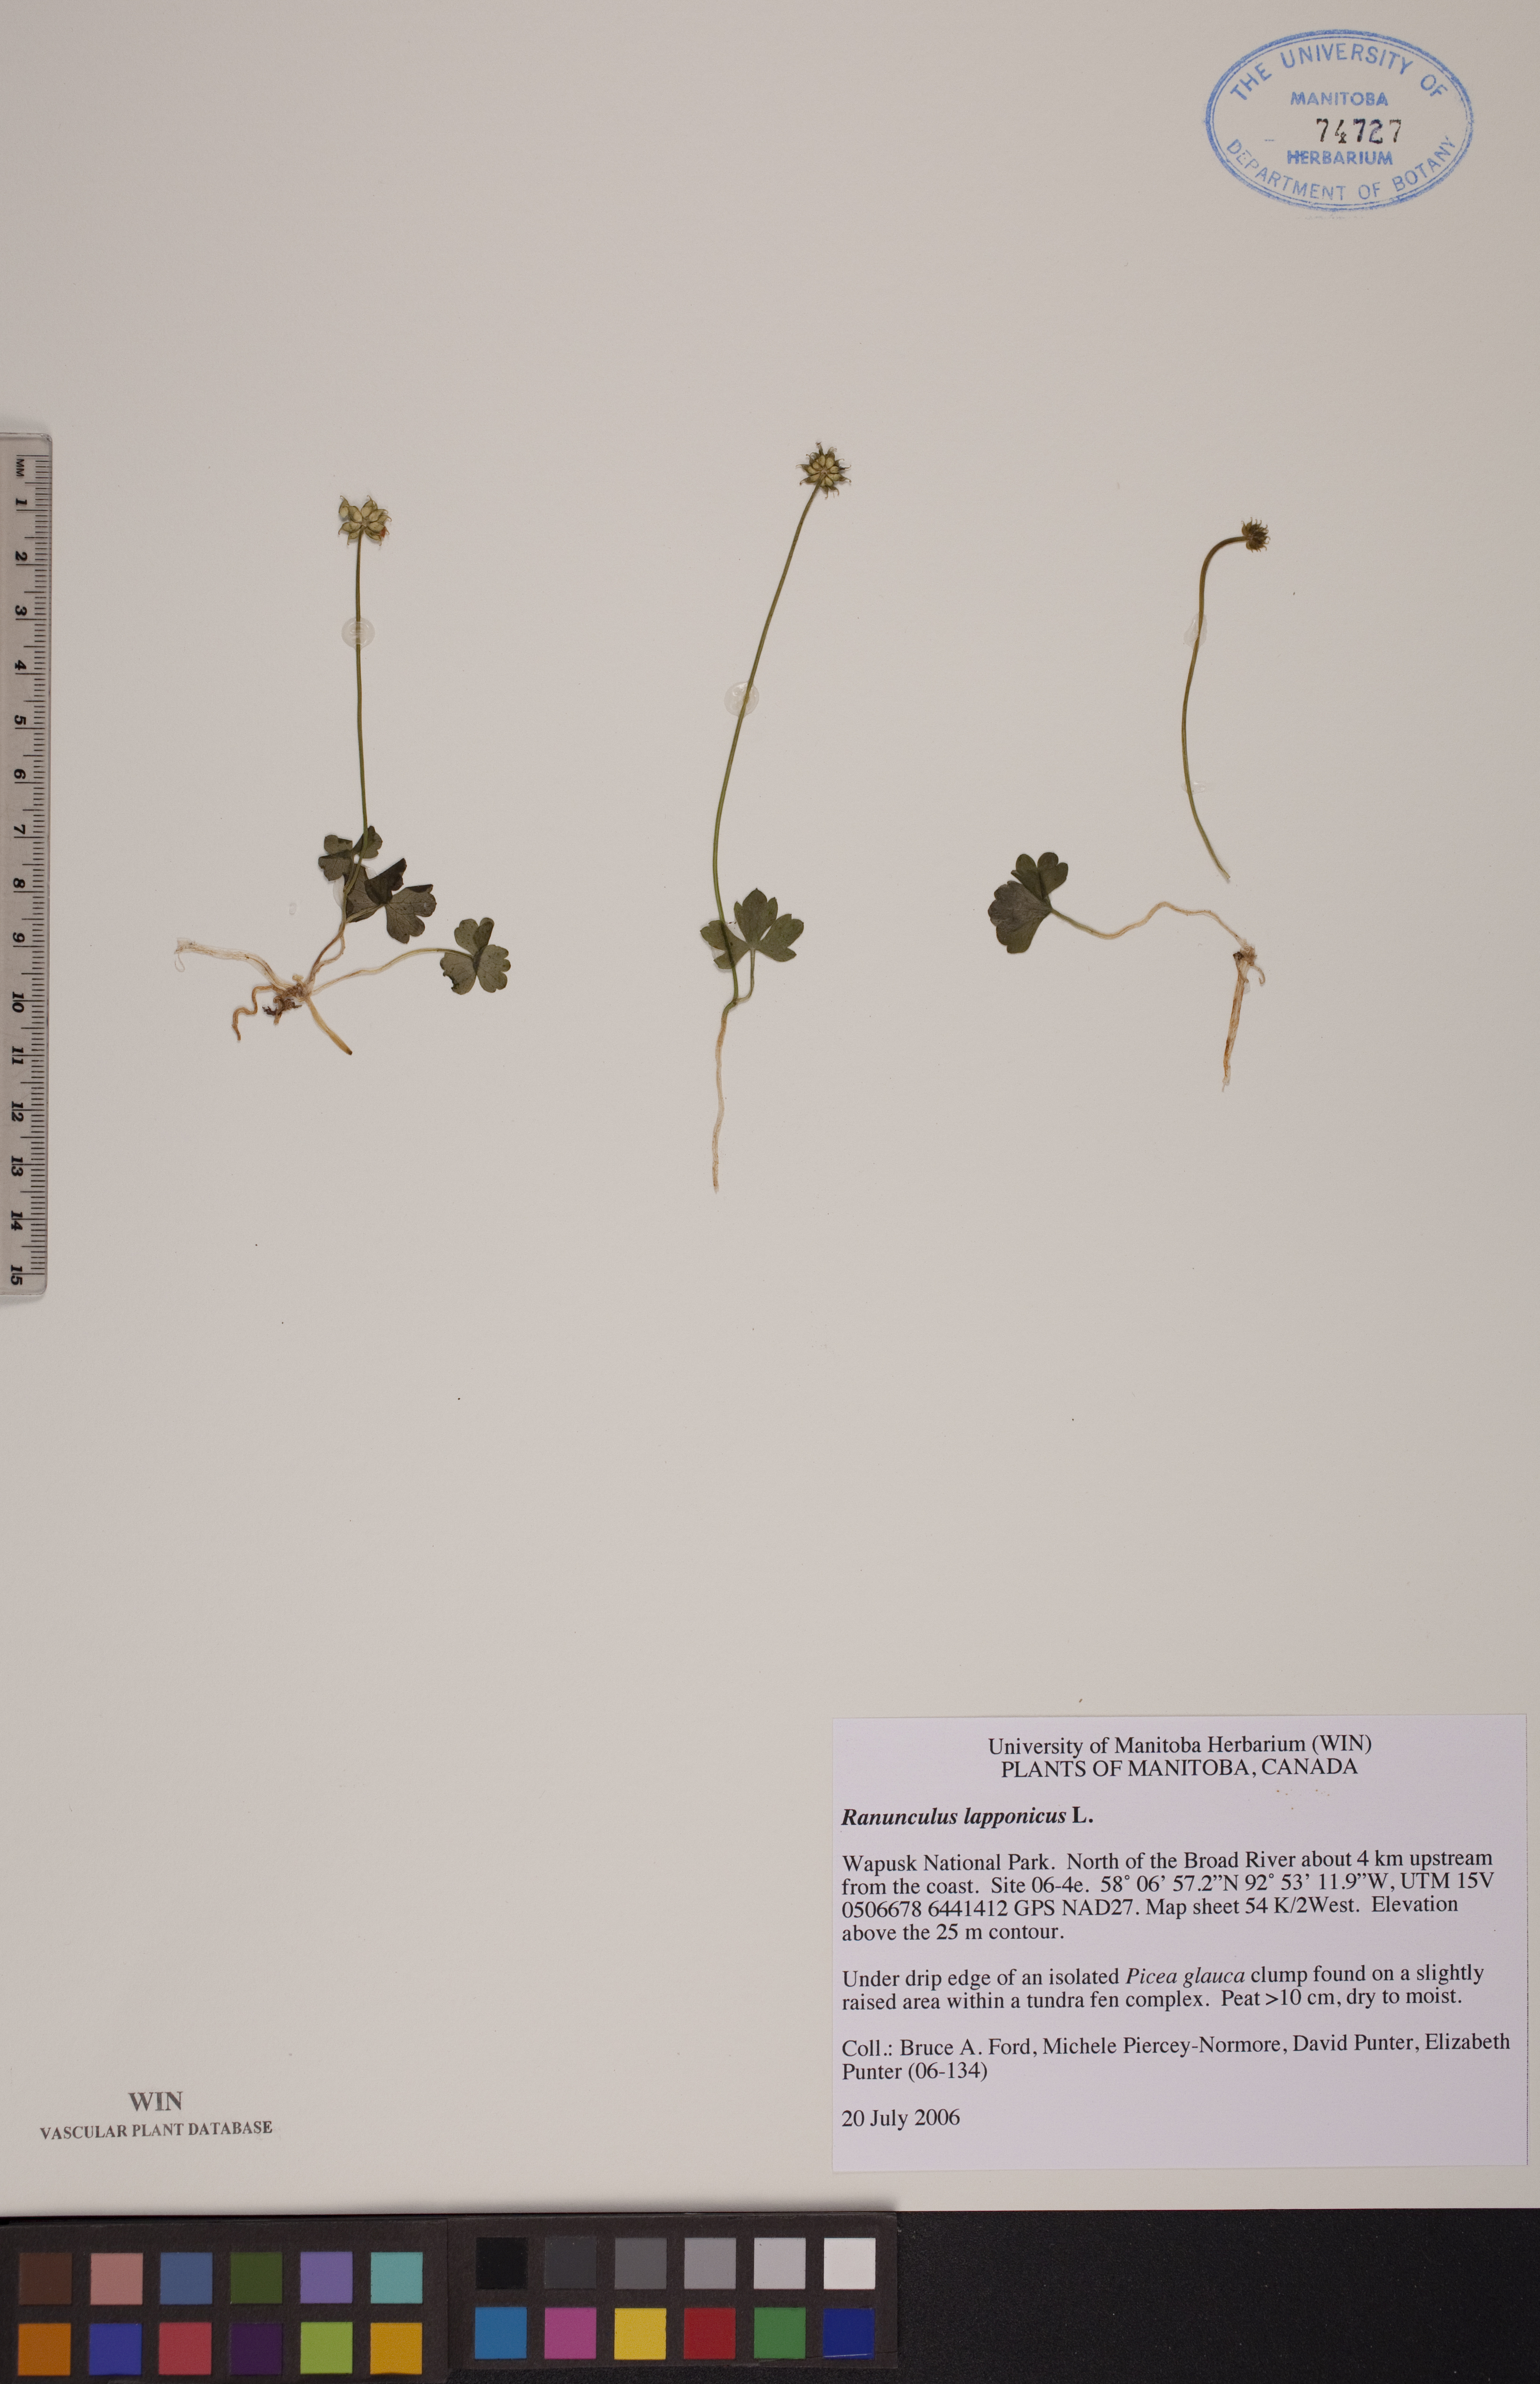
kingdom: Plantae
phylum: Tracheophyta
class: Magnoliopsida
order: Ranunculales
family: Ranunculaceae
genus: Coptidium
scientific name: Coptidium lapponicum
